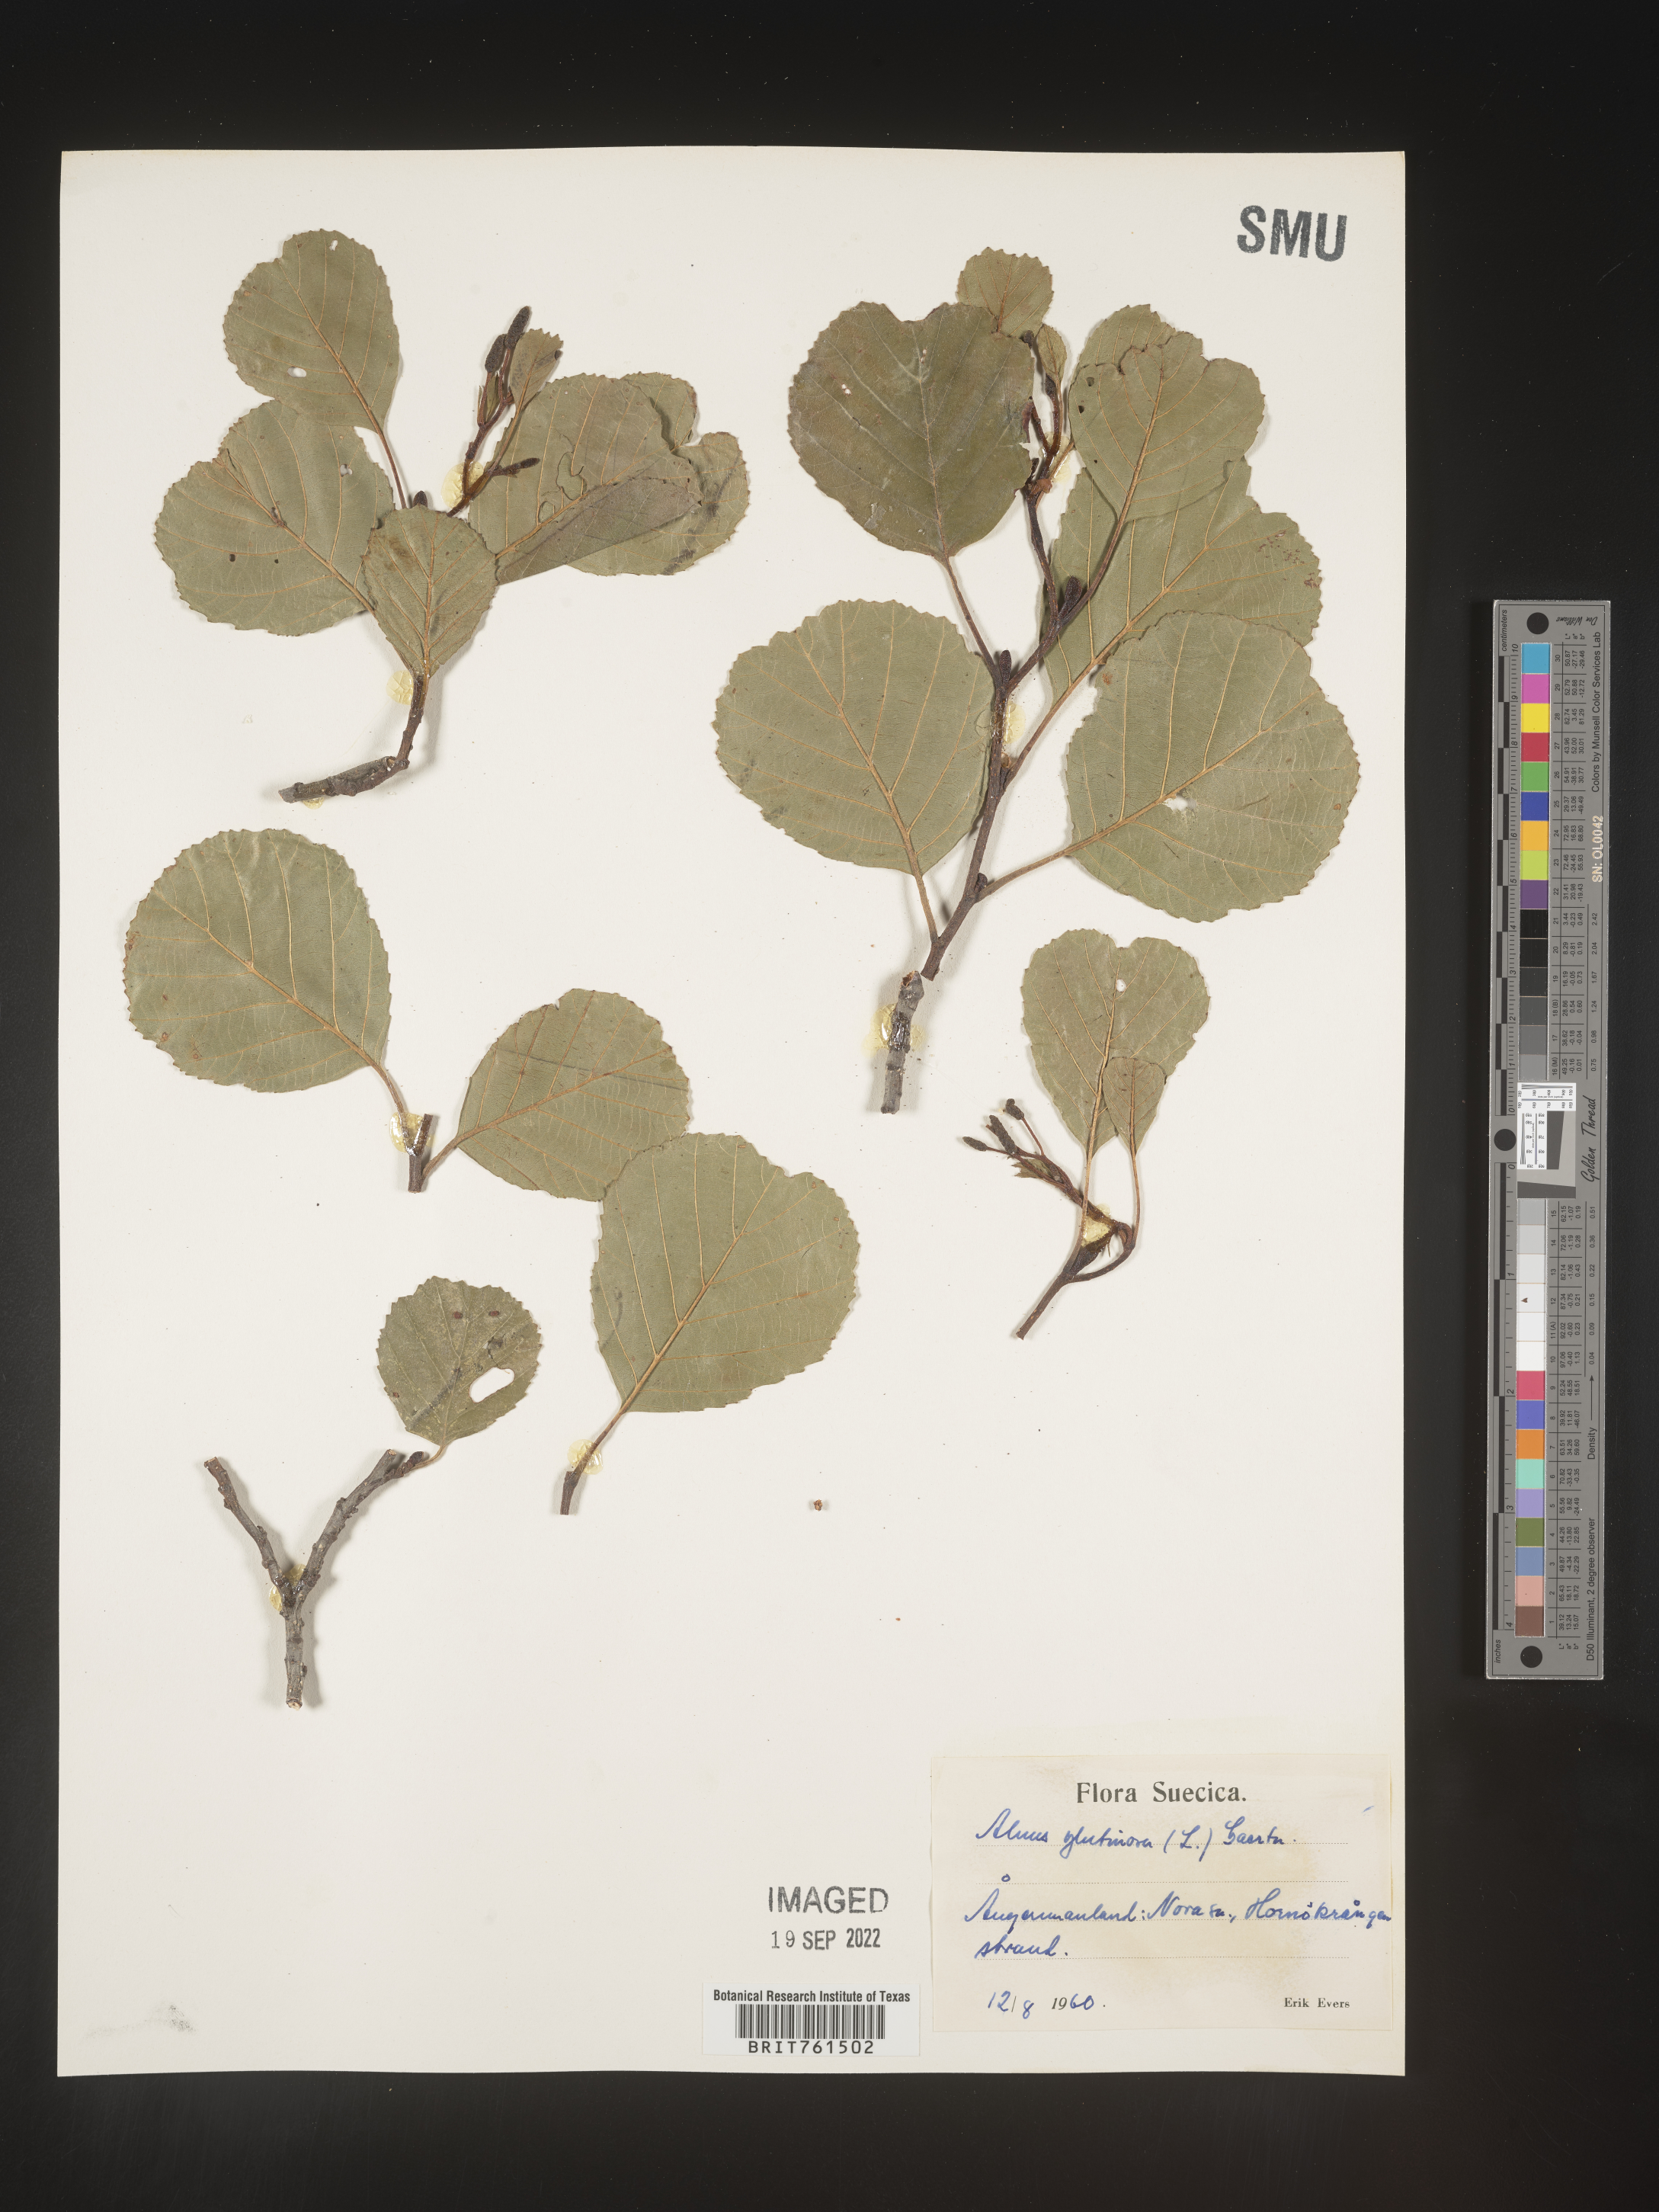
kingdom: Plantae
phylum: Tracheophyta
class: Magnoliopsida
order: Fagales
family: Betulaceae
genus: Alnus
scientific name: Alnus
